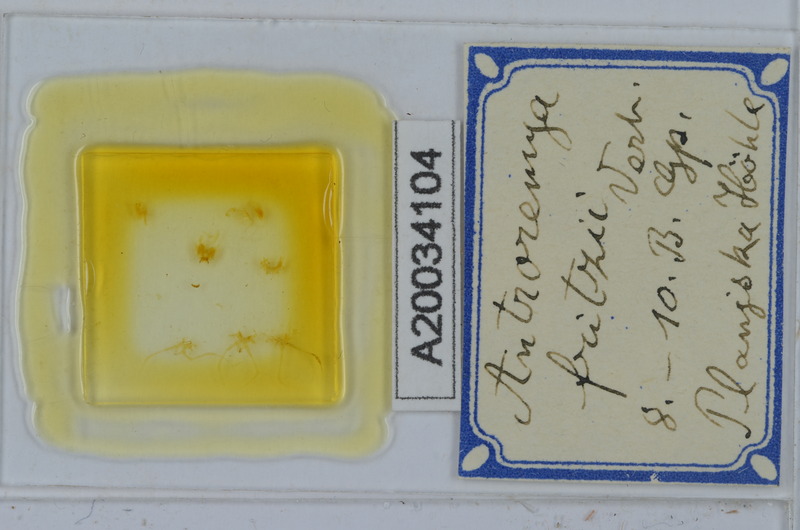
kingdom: Animalia
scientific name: Animalia
